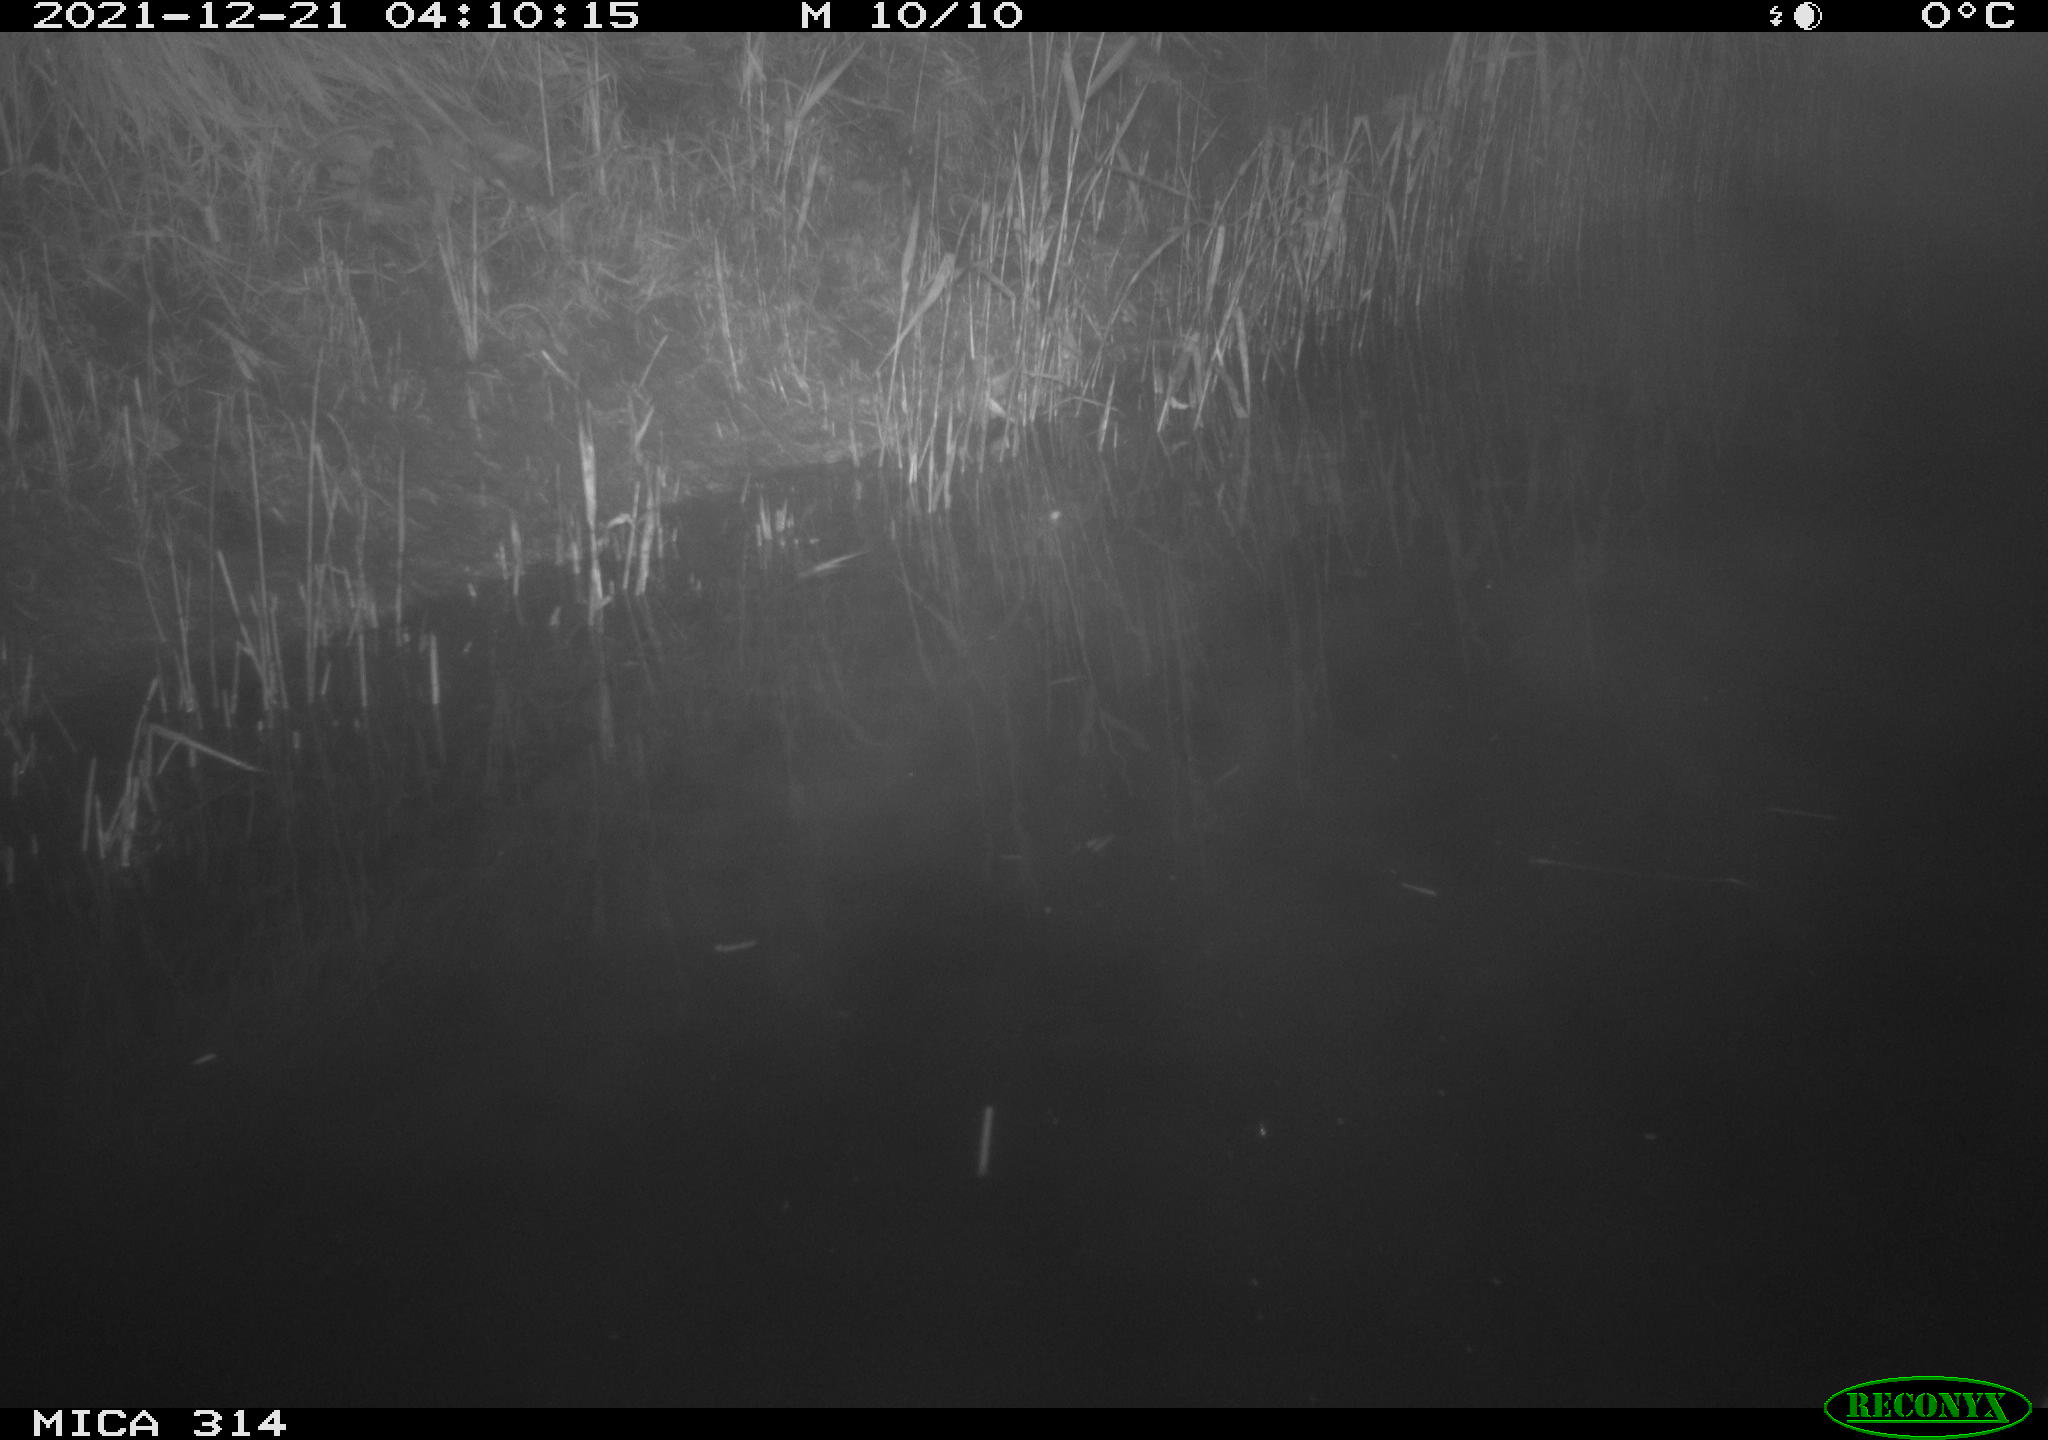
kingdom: Animalia
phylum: Chordata
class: Mammalia
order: Rodentia
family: Muridae
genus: Rattus
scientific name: Rattus norvegicus
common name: Brown rat
